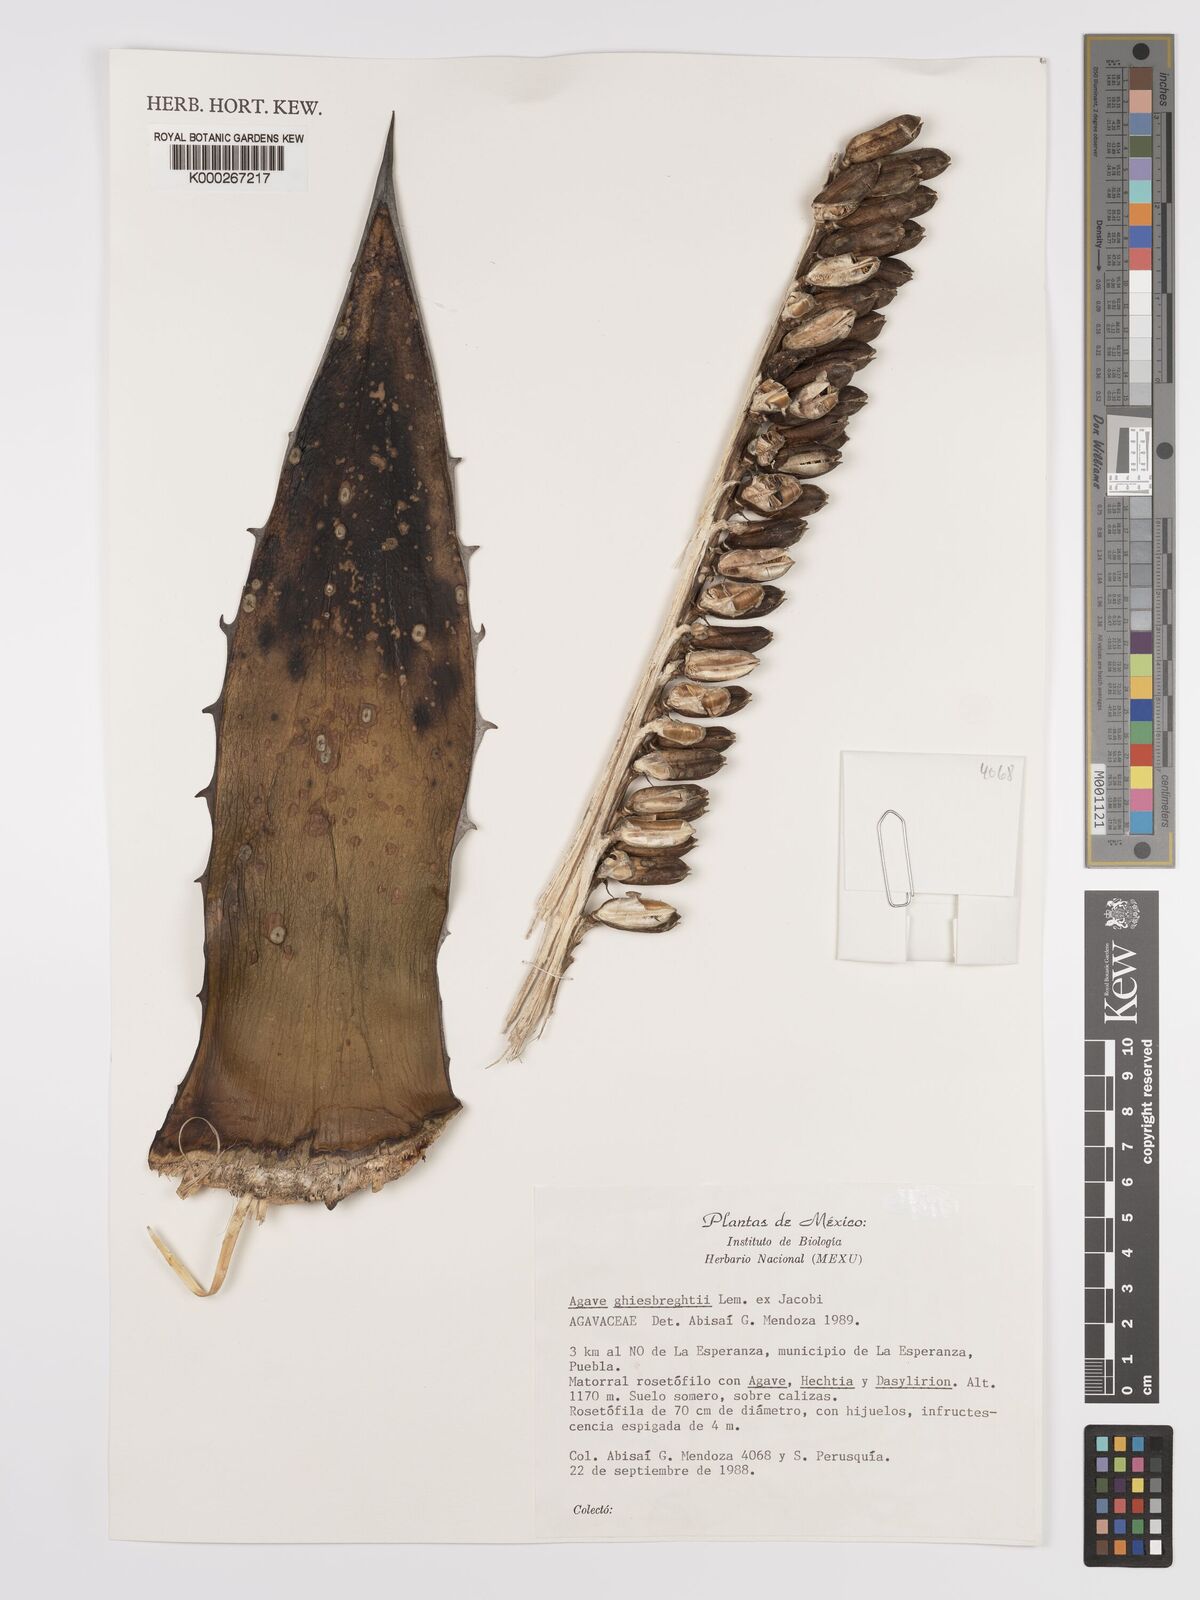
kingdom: Plantae
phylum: Tracheophyta
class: Liliopsida
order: Asparagales
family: Asparagaceae
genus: Agave
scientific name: Agave ghiesbreghtii
